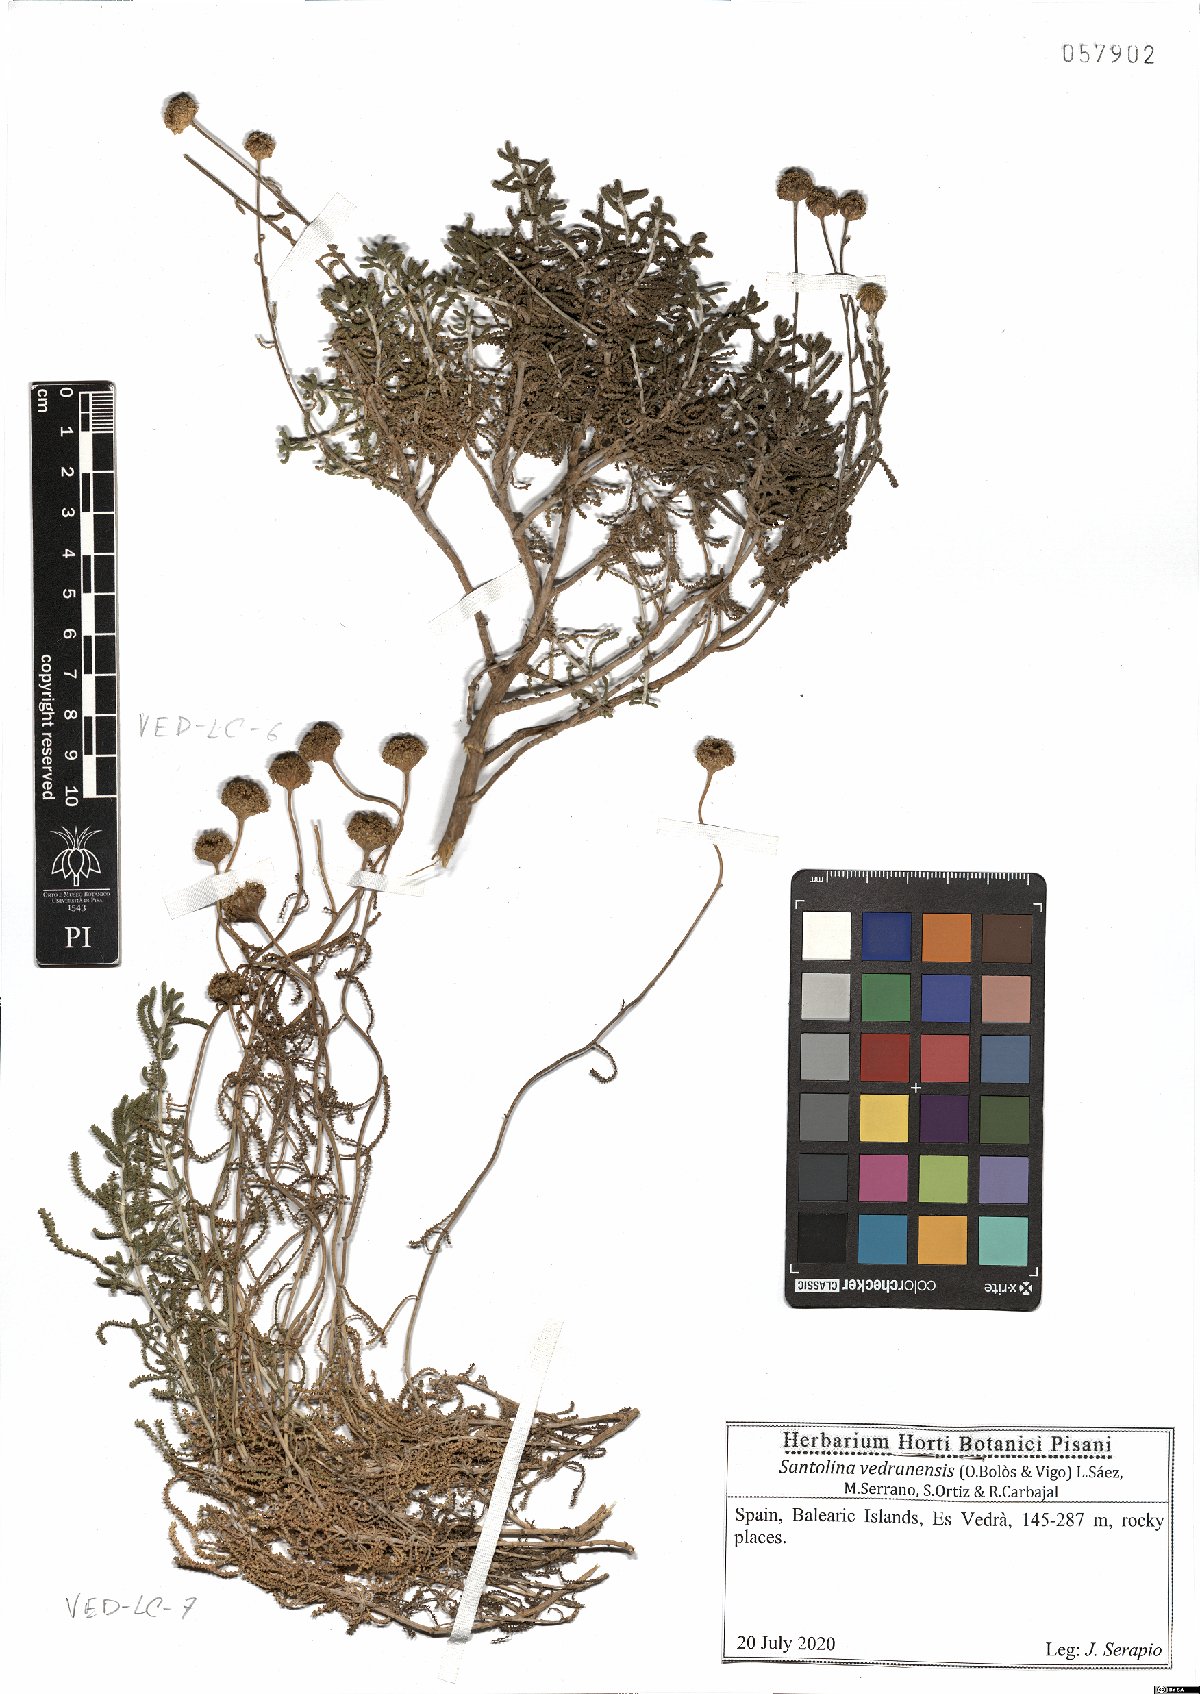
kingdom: Plantae
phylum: Tracheophyta
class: Magnoliopsida
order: Asterales
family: Asteraceae
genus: Santolina
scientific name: Santolina vedranensis
